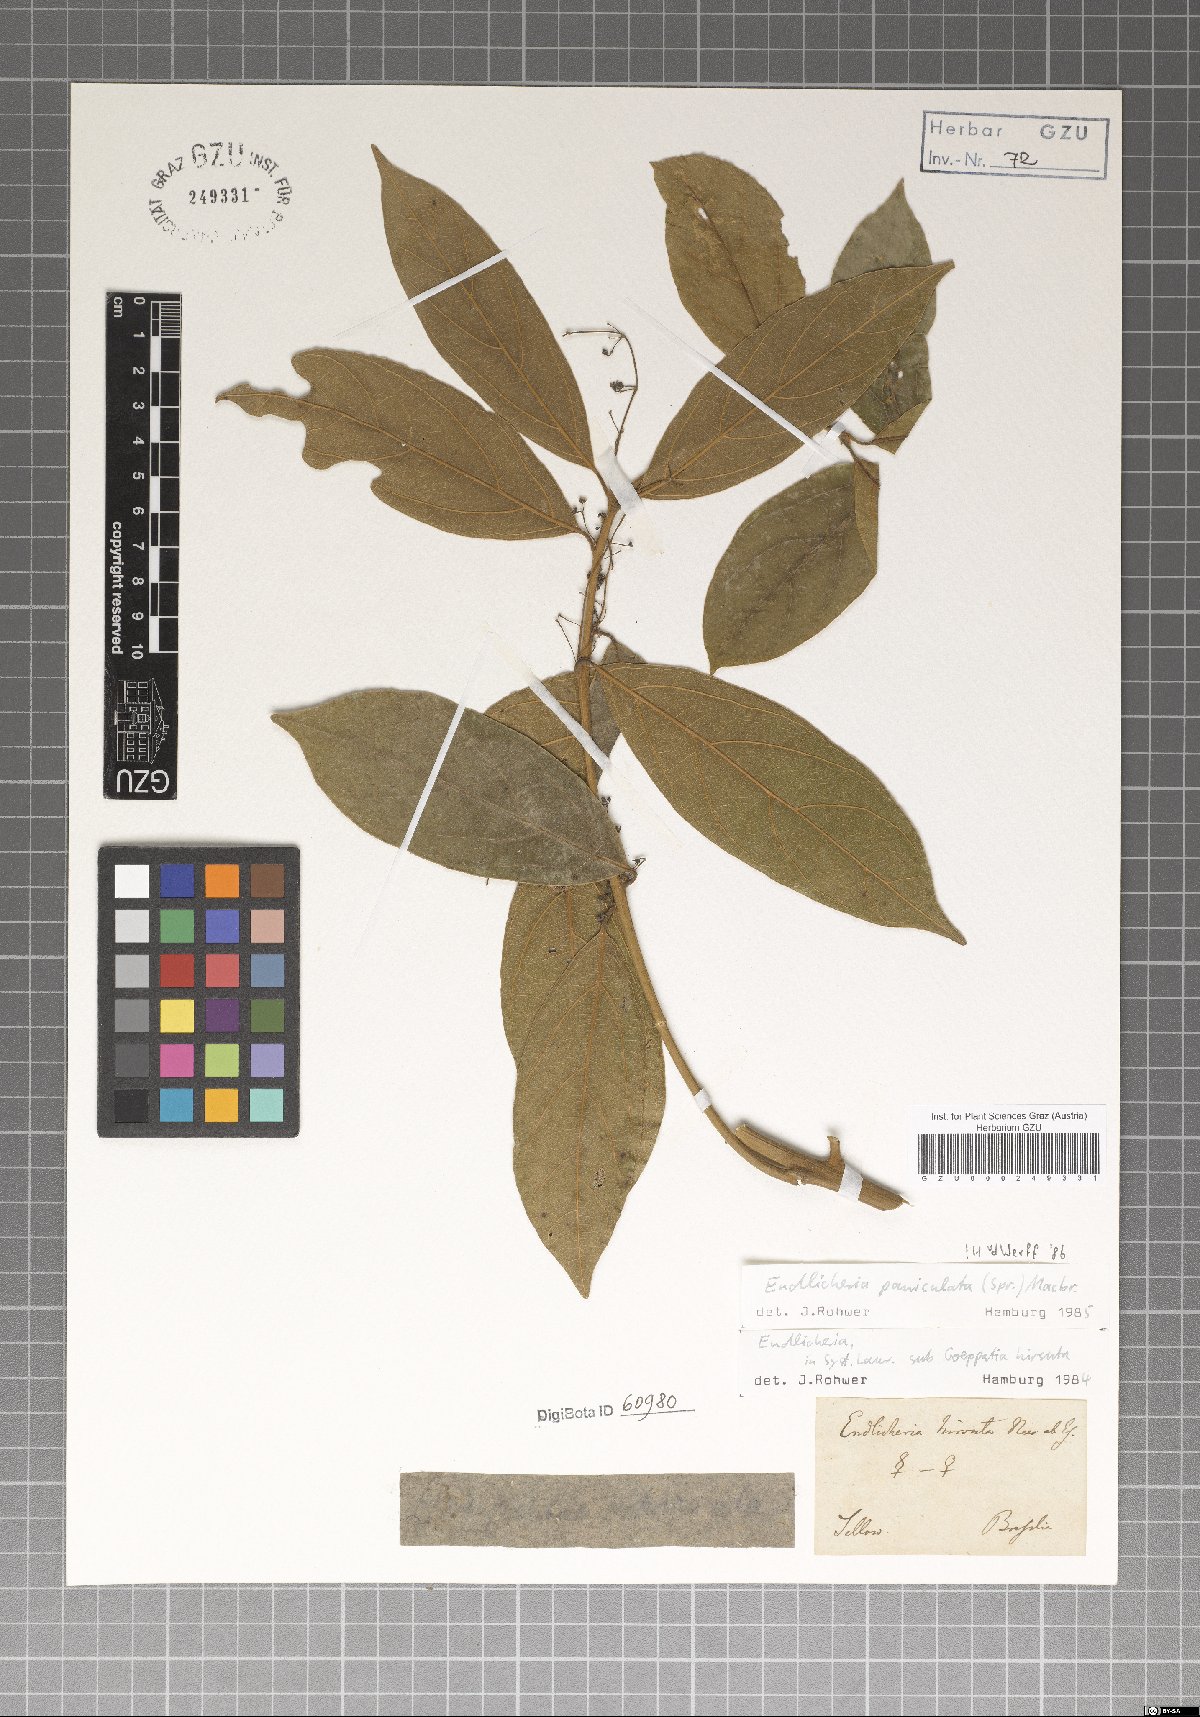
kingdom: Plantae
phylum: Tracheophyta
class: Magnoliopsida
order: Laurales
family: Lauraceae
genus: Endlicheria
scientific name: Endlicheria paniculata
